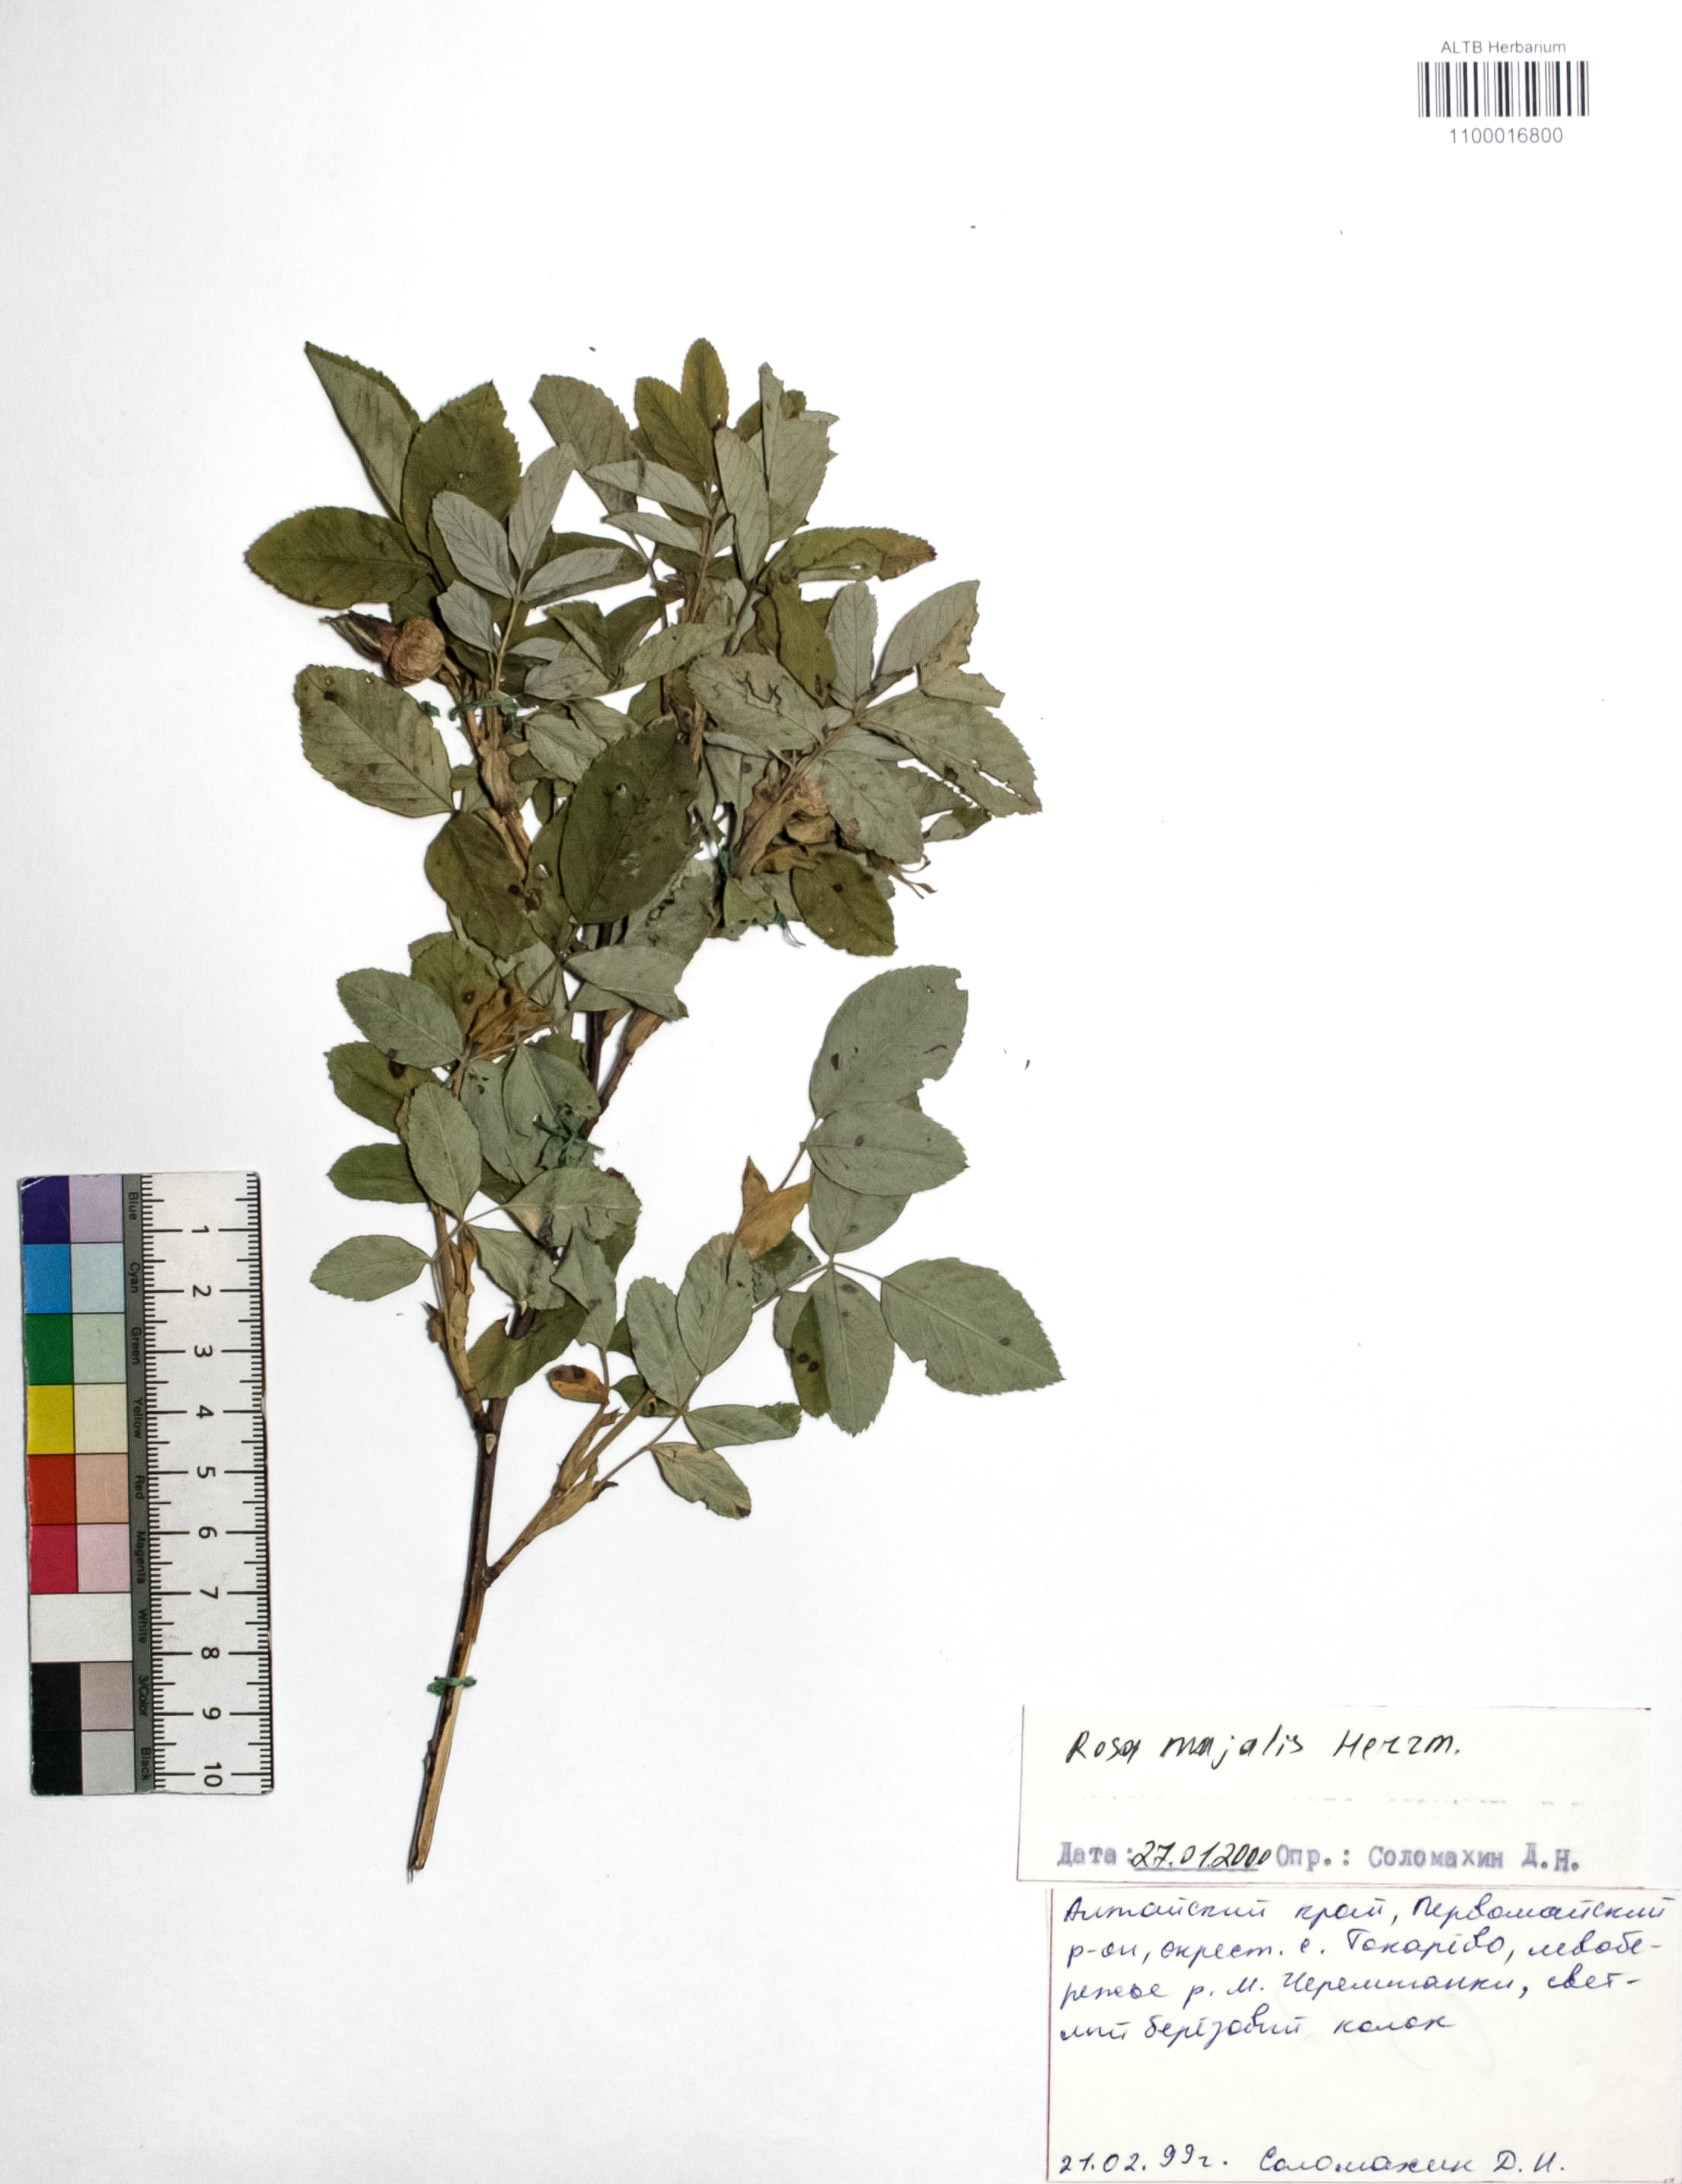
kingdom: Plantae
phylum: Tracheophyta
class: Magnoliopsida
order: Rosales
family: Rosaceae
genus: Rosa
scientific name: Rosa majalis
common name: Cinnamon rose
